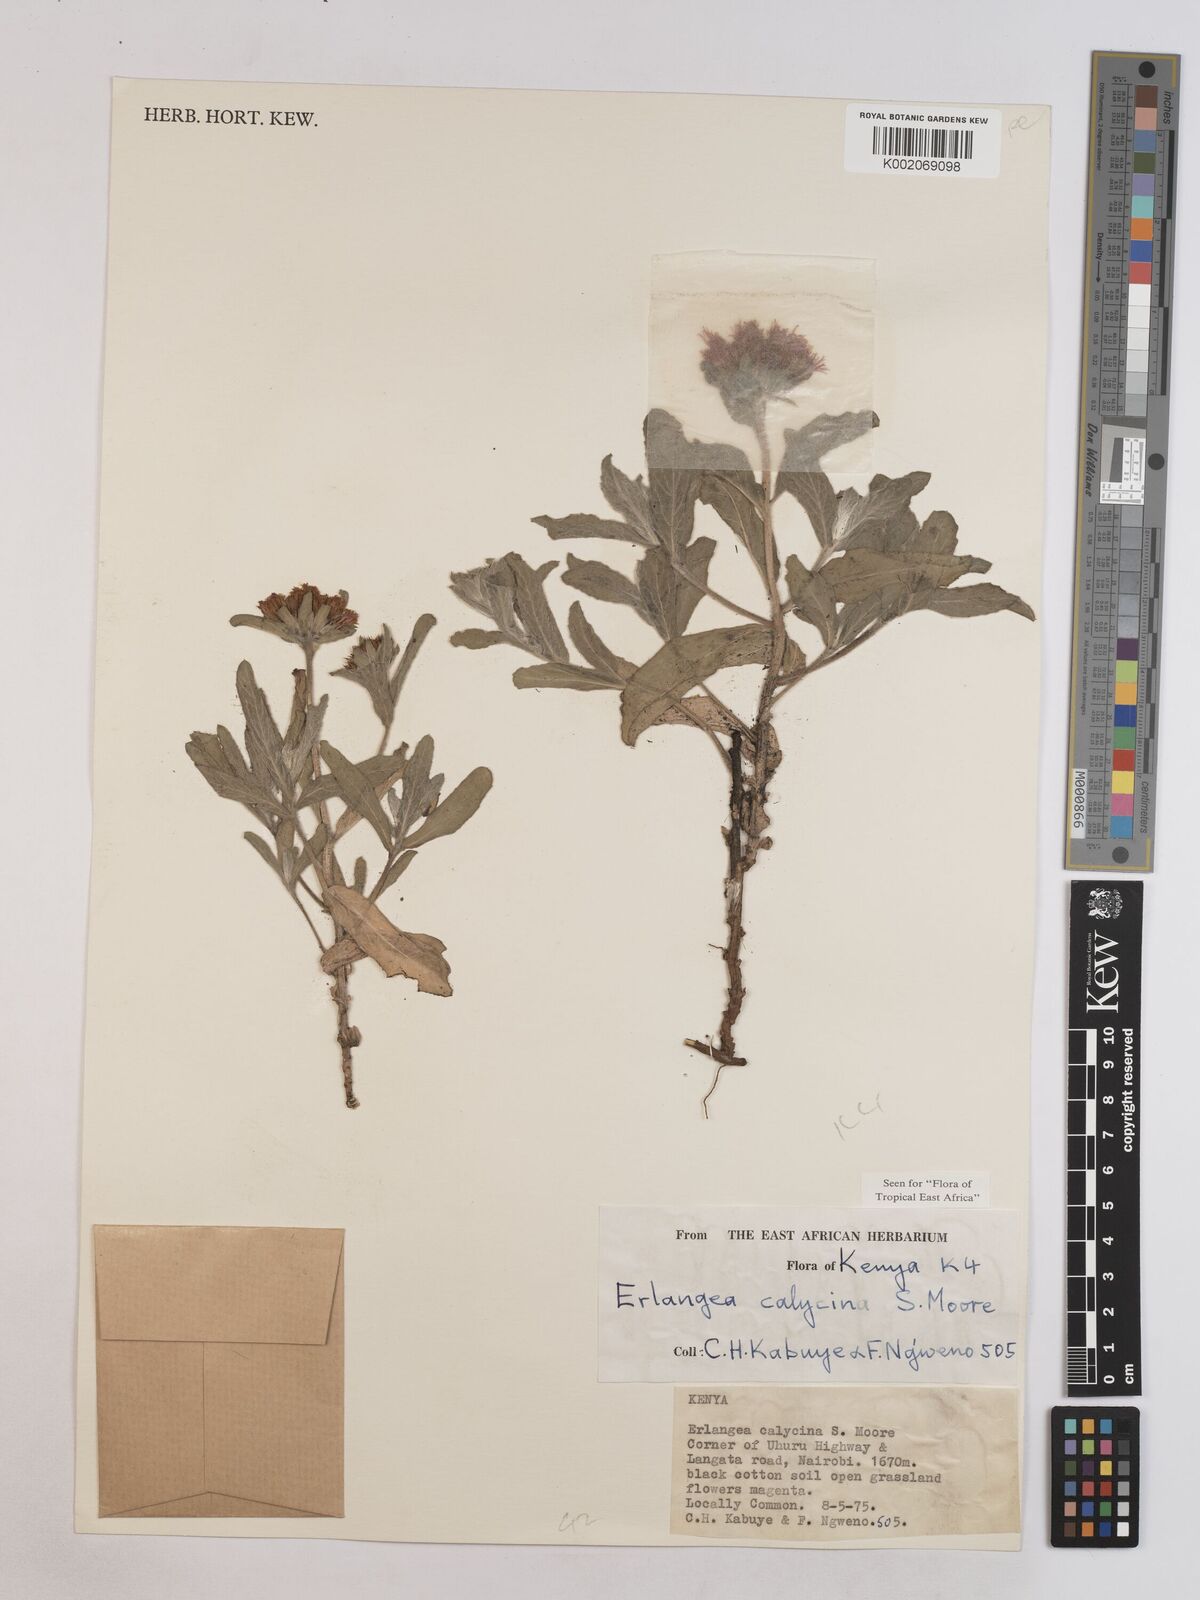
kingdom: Plantae
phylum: Tracheophyta
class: Magnoliopsida
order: Asterales
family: Asteraceae
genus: Erlangea
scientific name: Erlangea calycina
